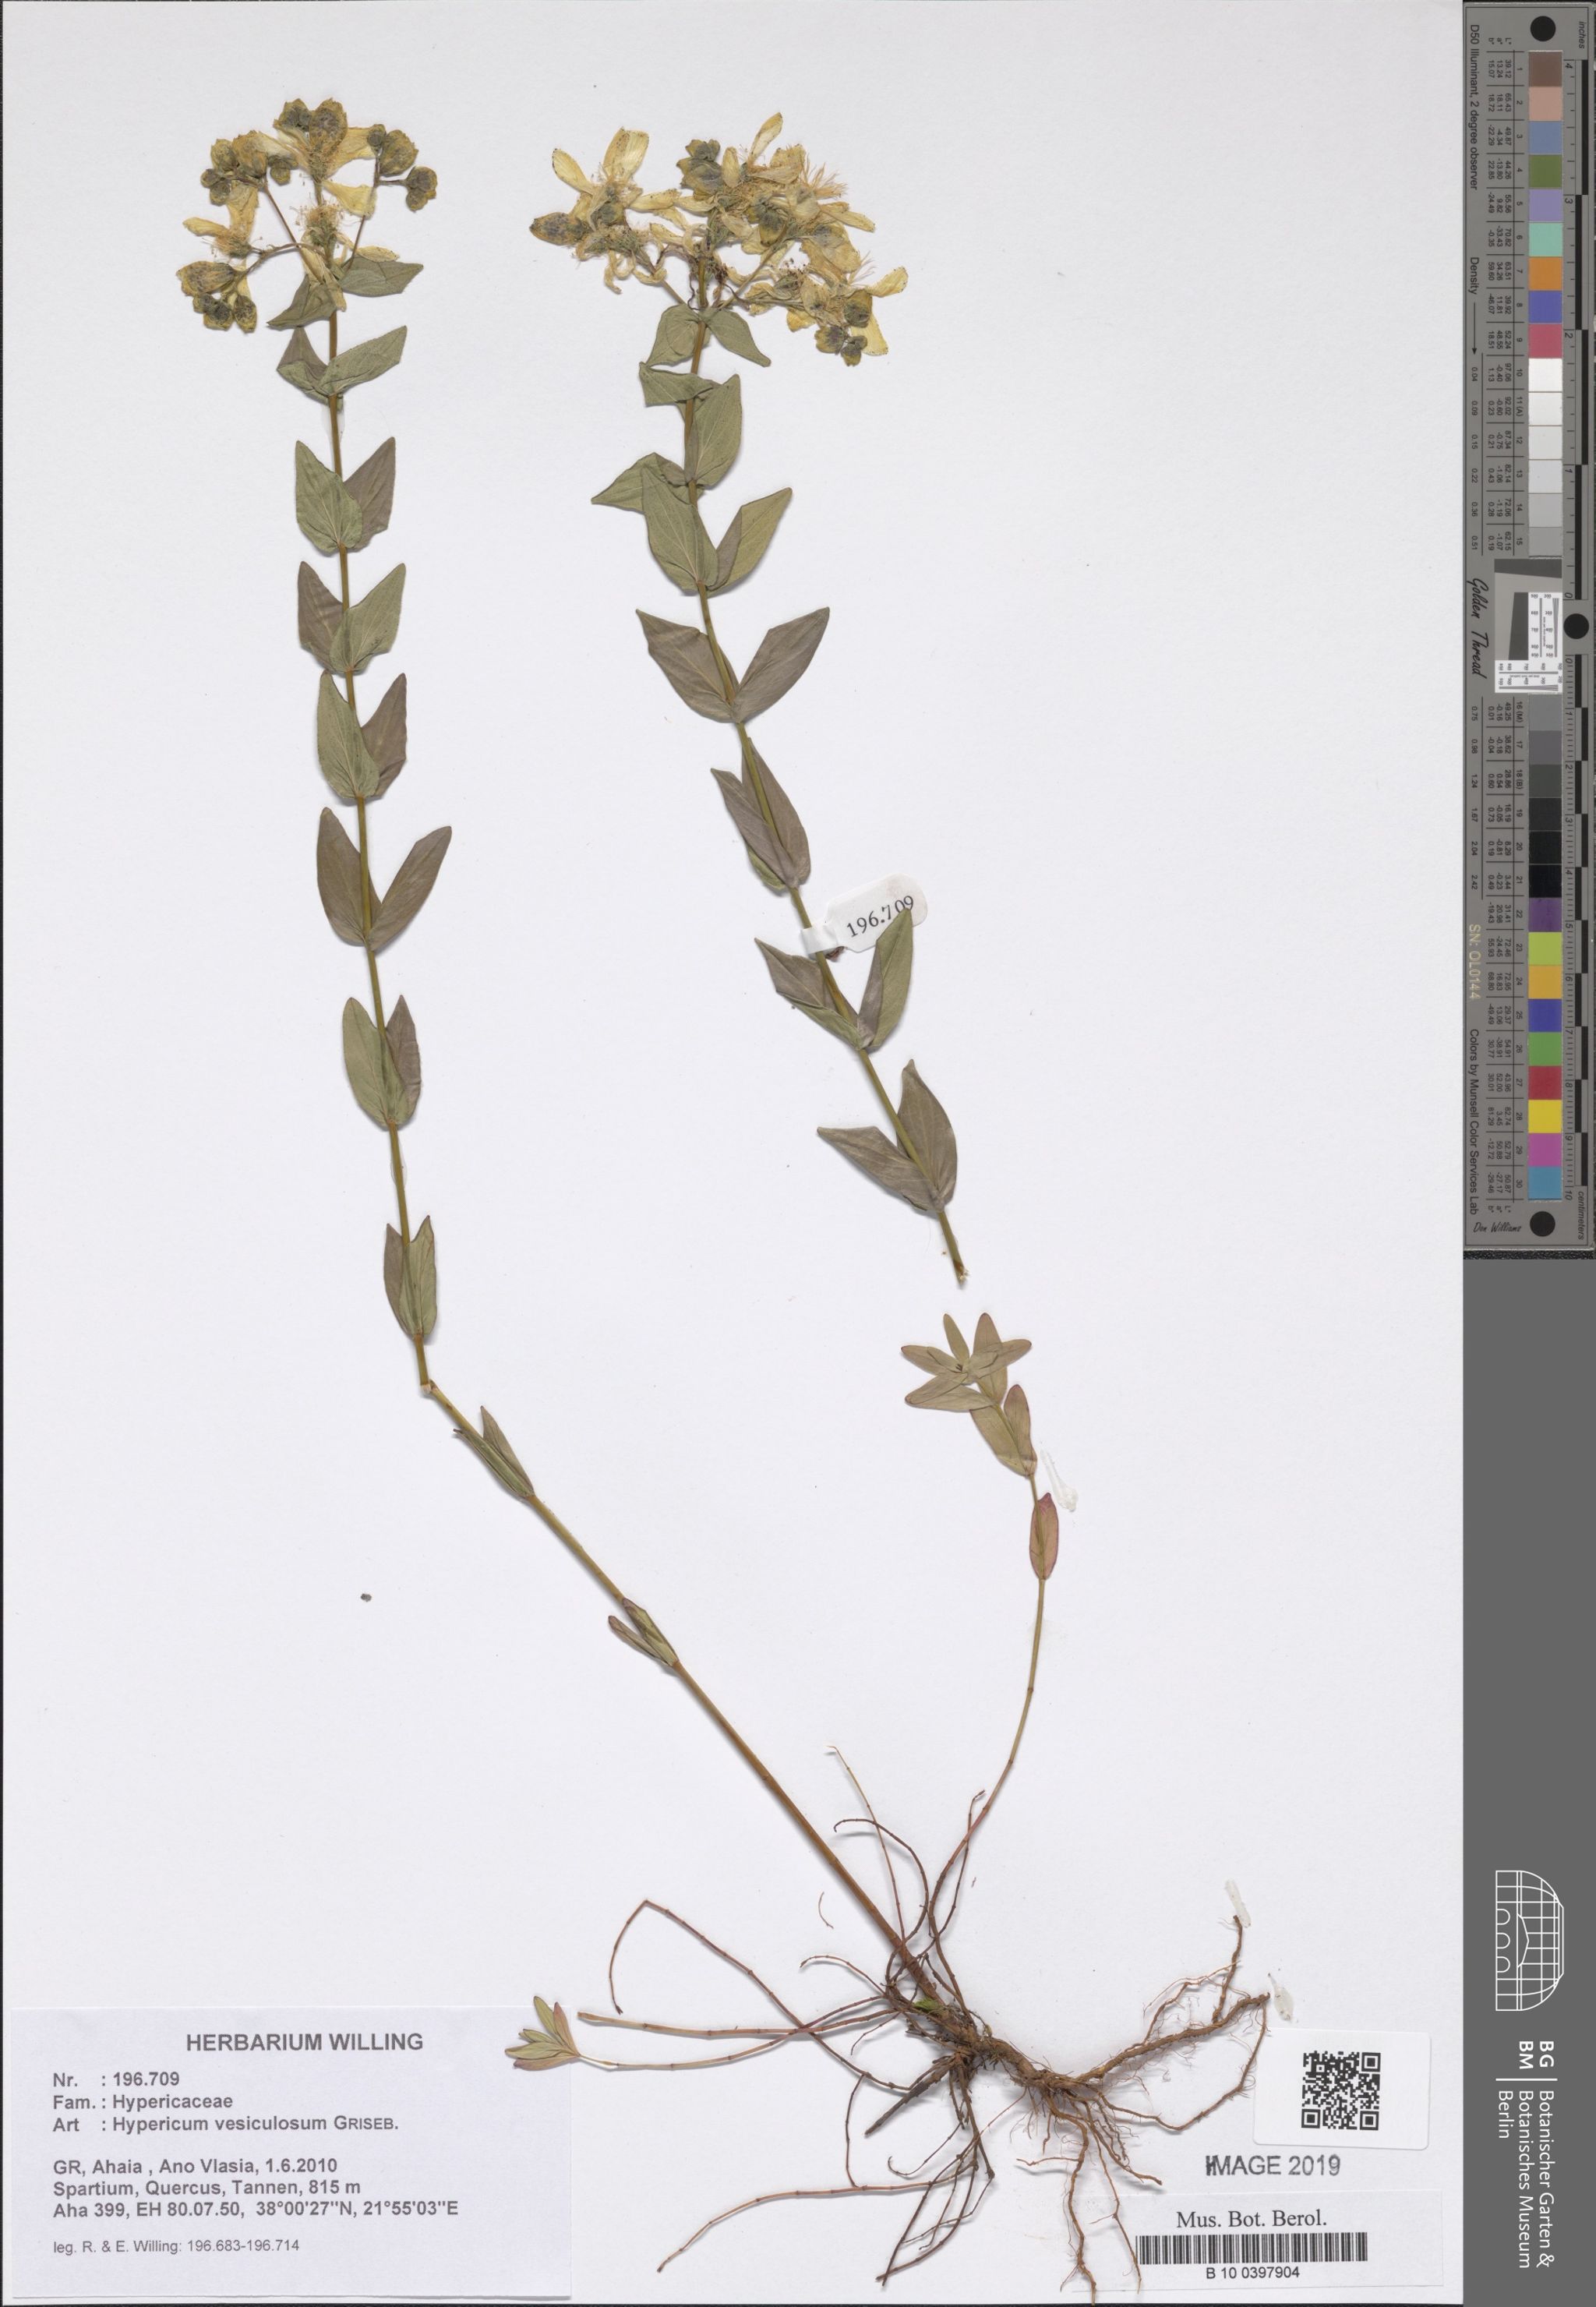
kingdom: Plantae
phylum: Tracheophyta
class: Magnoliopsida
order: Malpighiales
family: Hypericaceae
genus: Hypericum
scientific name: Hypericum vesiculosum
